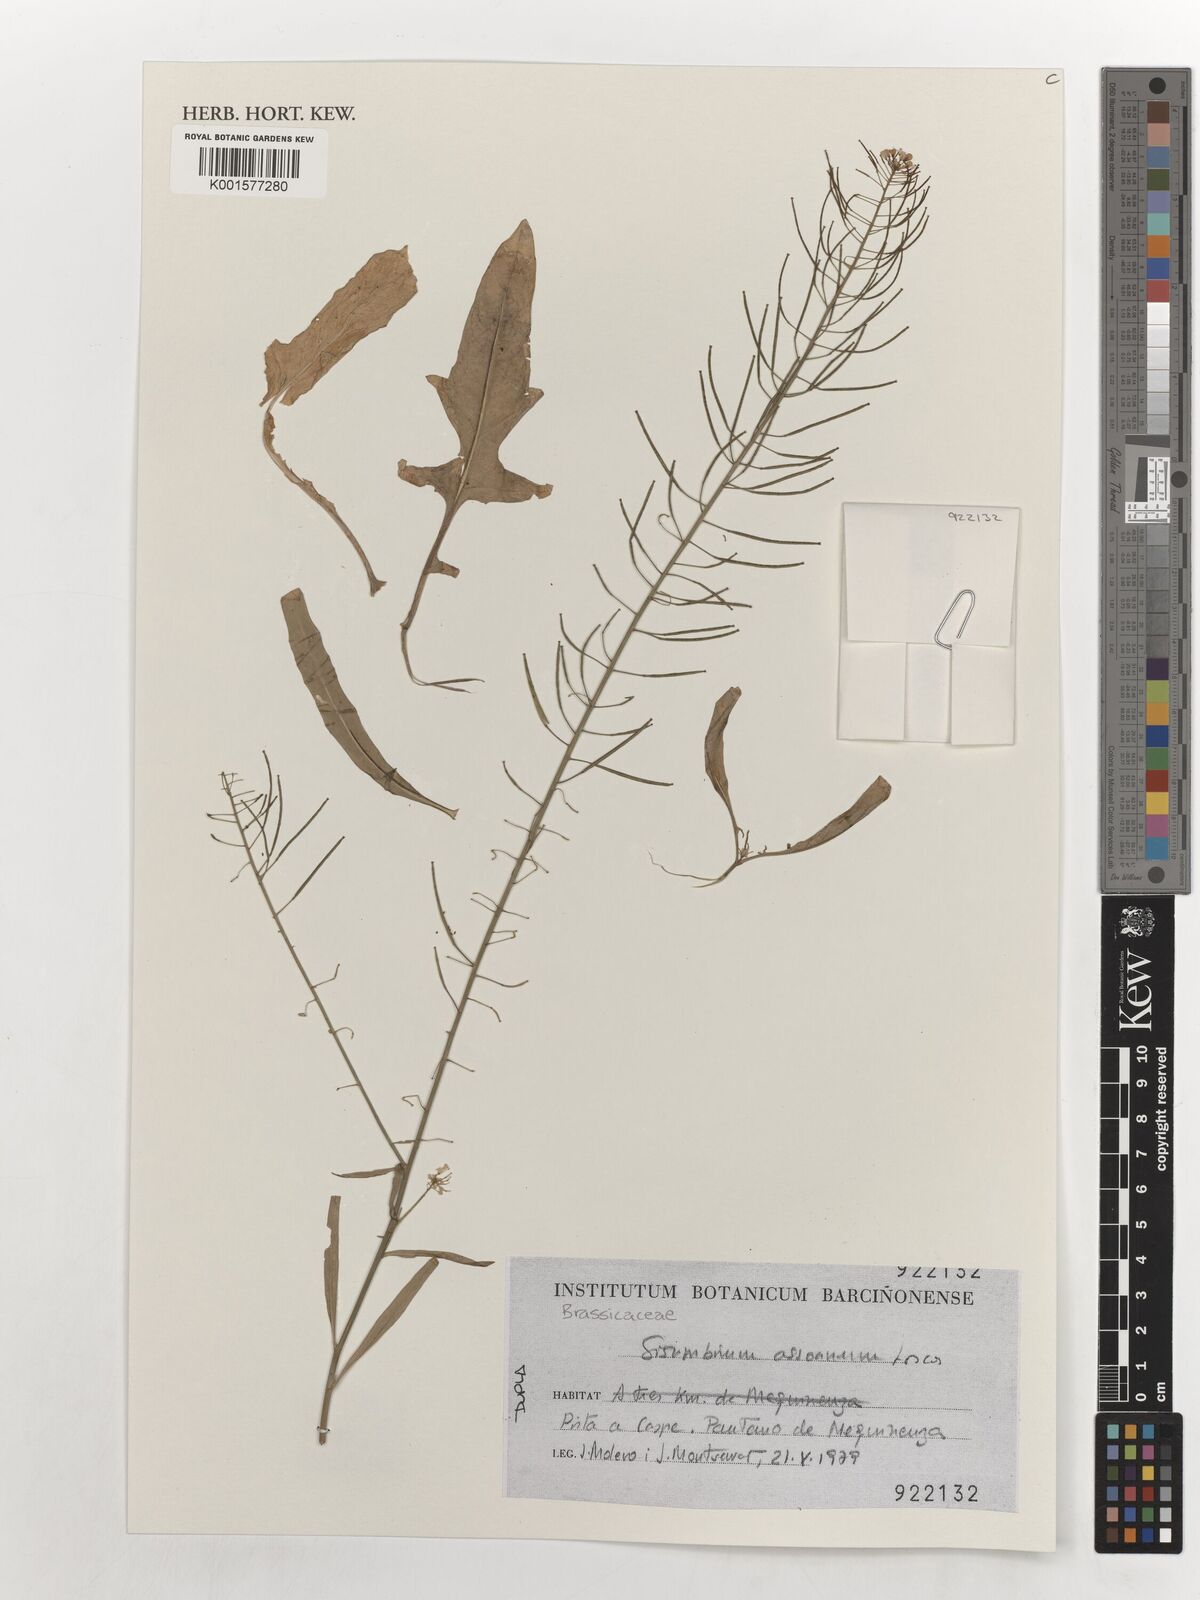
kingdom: Plantae
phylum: Tracheophyta
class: Magnoliopsida
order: Brassicales
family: Brassicaceae
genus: Sisymbrium
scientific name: Sisymbrium assoanum
